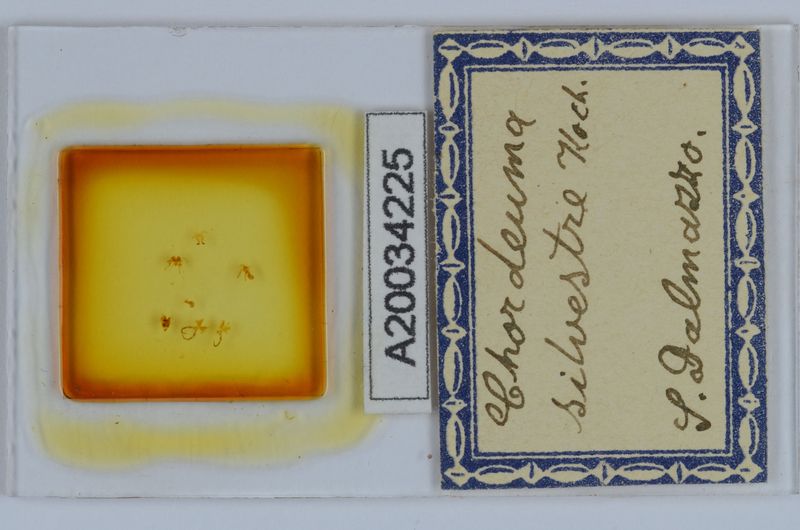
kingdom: Animalia
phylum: Arthropoda
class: Diplopoda
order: Chordeumatida
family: Chordeumatidae
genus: Chordeuma
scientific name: Chordeuma sylvestre
